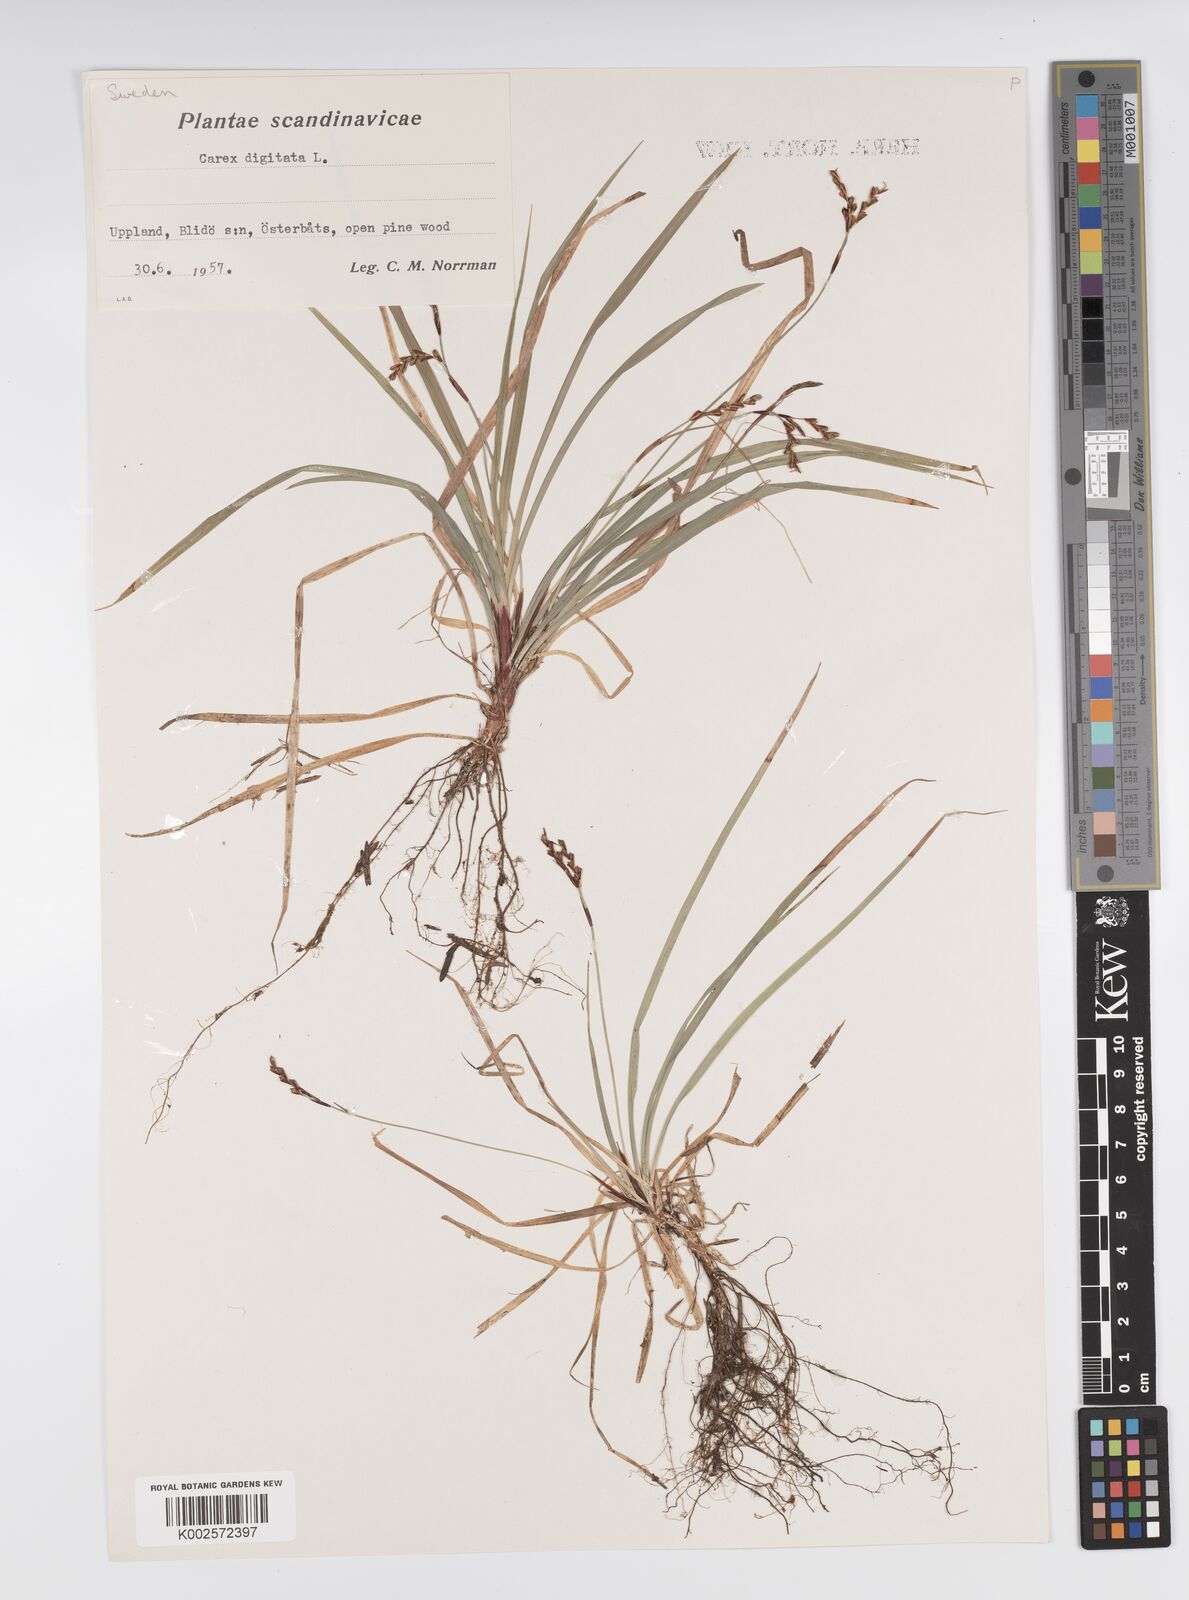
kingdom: Plantae
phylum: Tracheophyta
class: Liliopsida
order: Poales
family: Cyperaceae
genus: Carex
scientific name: Carex digitata
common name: Fingered sedge
